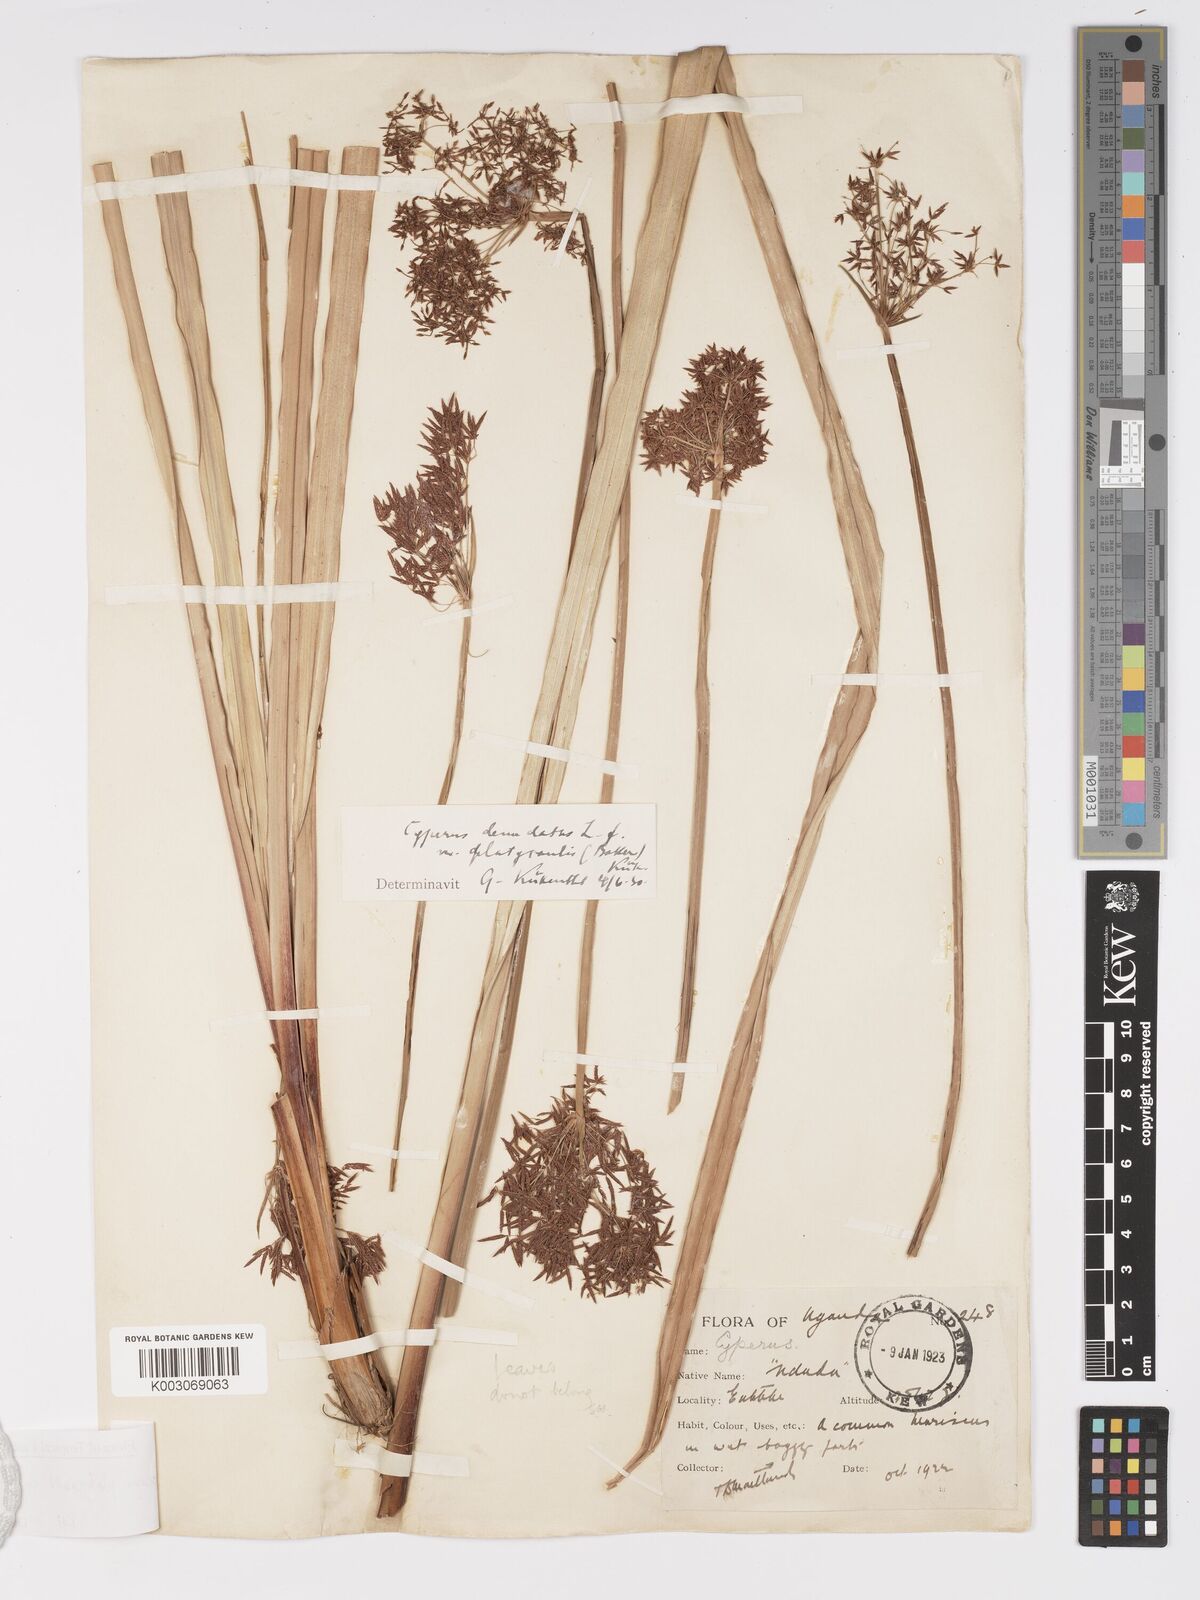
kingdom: Plantae
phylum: Tracheophyta
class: Liliopsida
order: Poales
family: Cyperaceae
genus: Cyperus
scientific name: Cyperus platycaulis
